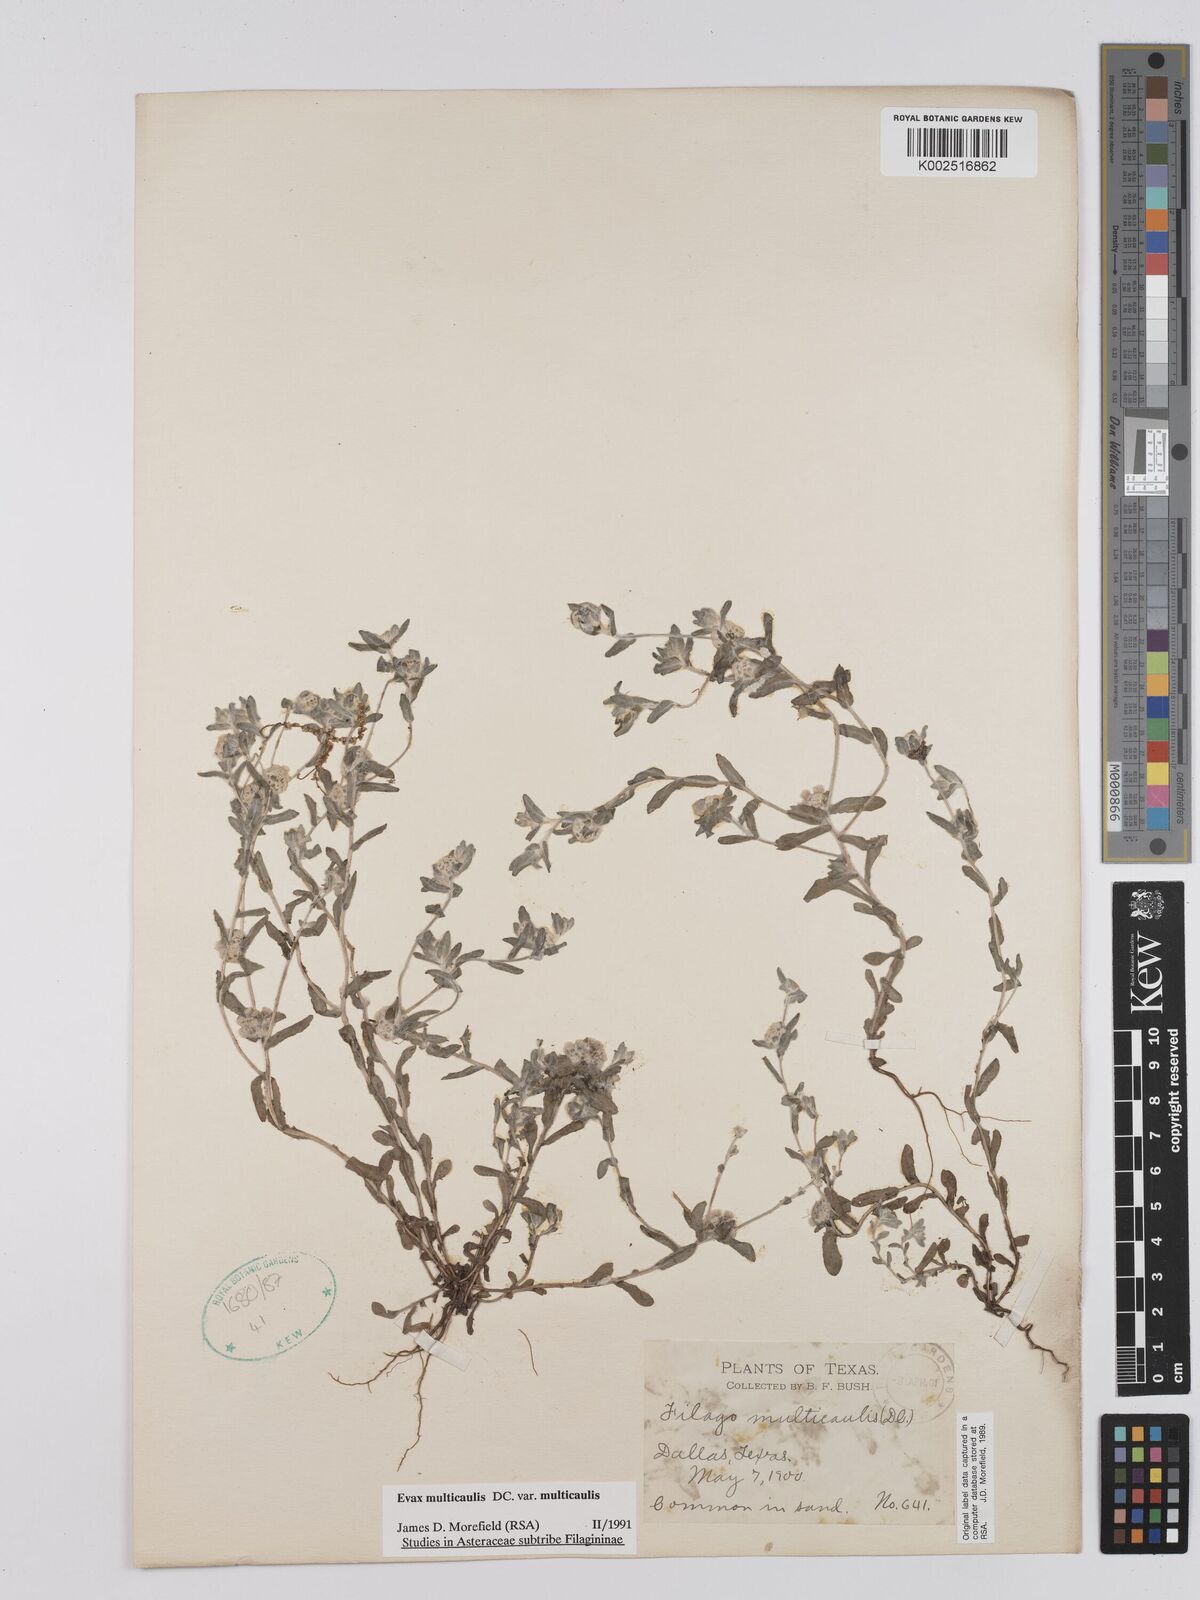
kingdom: Plantae
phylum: Tracheophyta
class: Magnoliopsida
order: Asterales
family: Asteraceae
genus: Filago
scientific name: Filago
